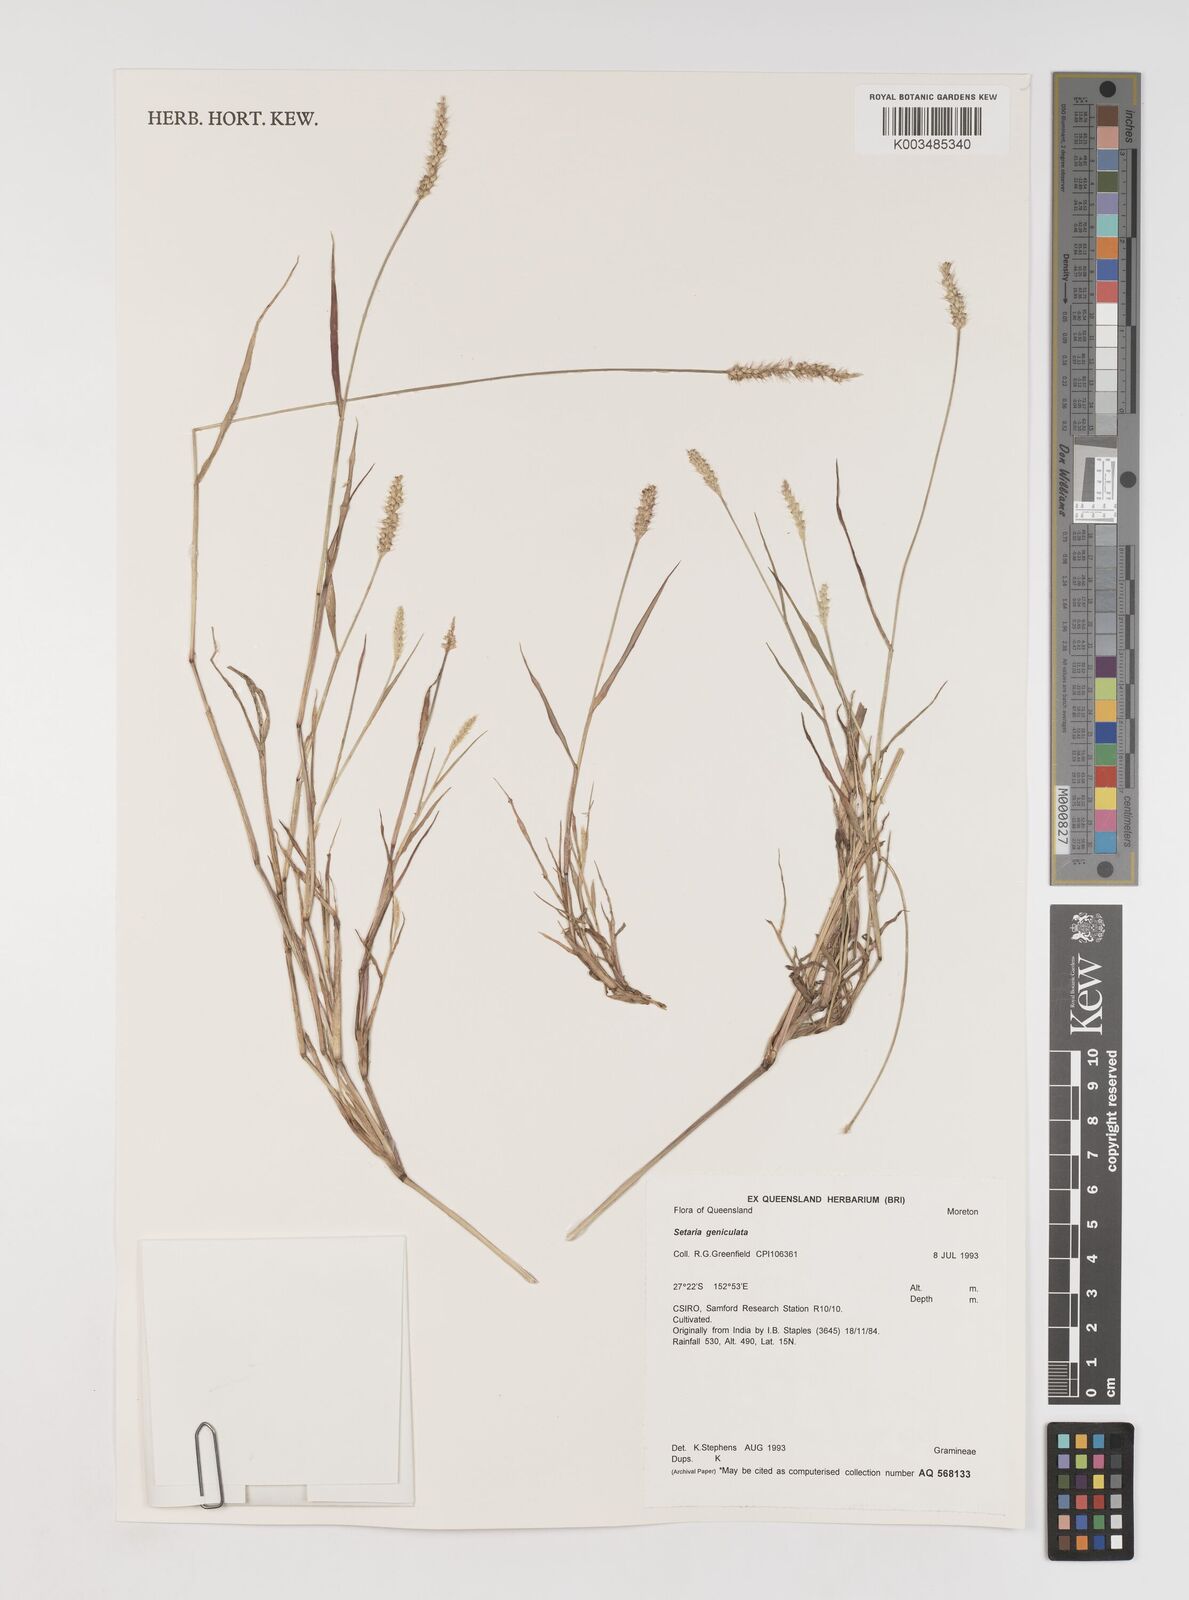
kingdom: Plantae
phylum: Tracheophyta
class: Liliopsida
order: Poales
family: Poaceae
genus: Setaria
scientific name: Setaria parviflora
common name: Knotroot bristle-grass
